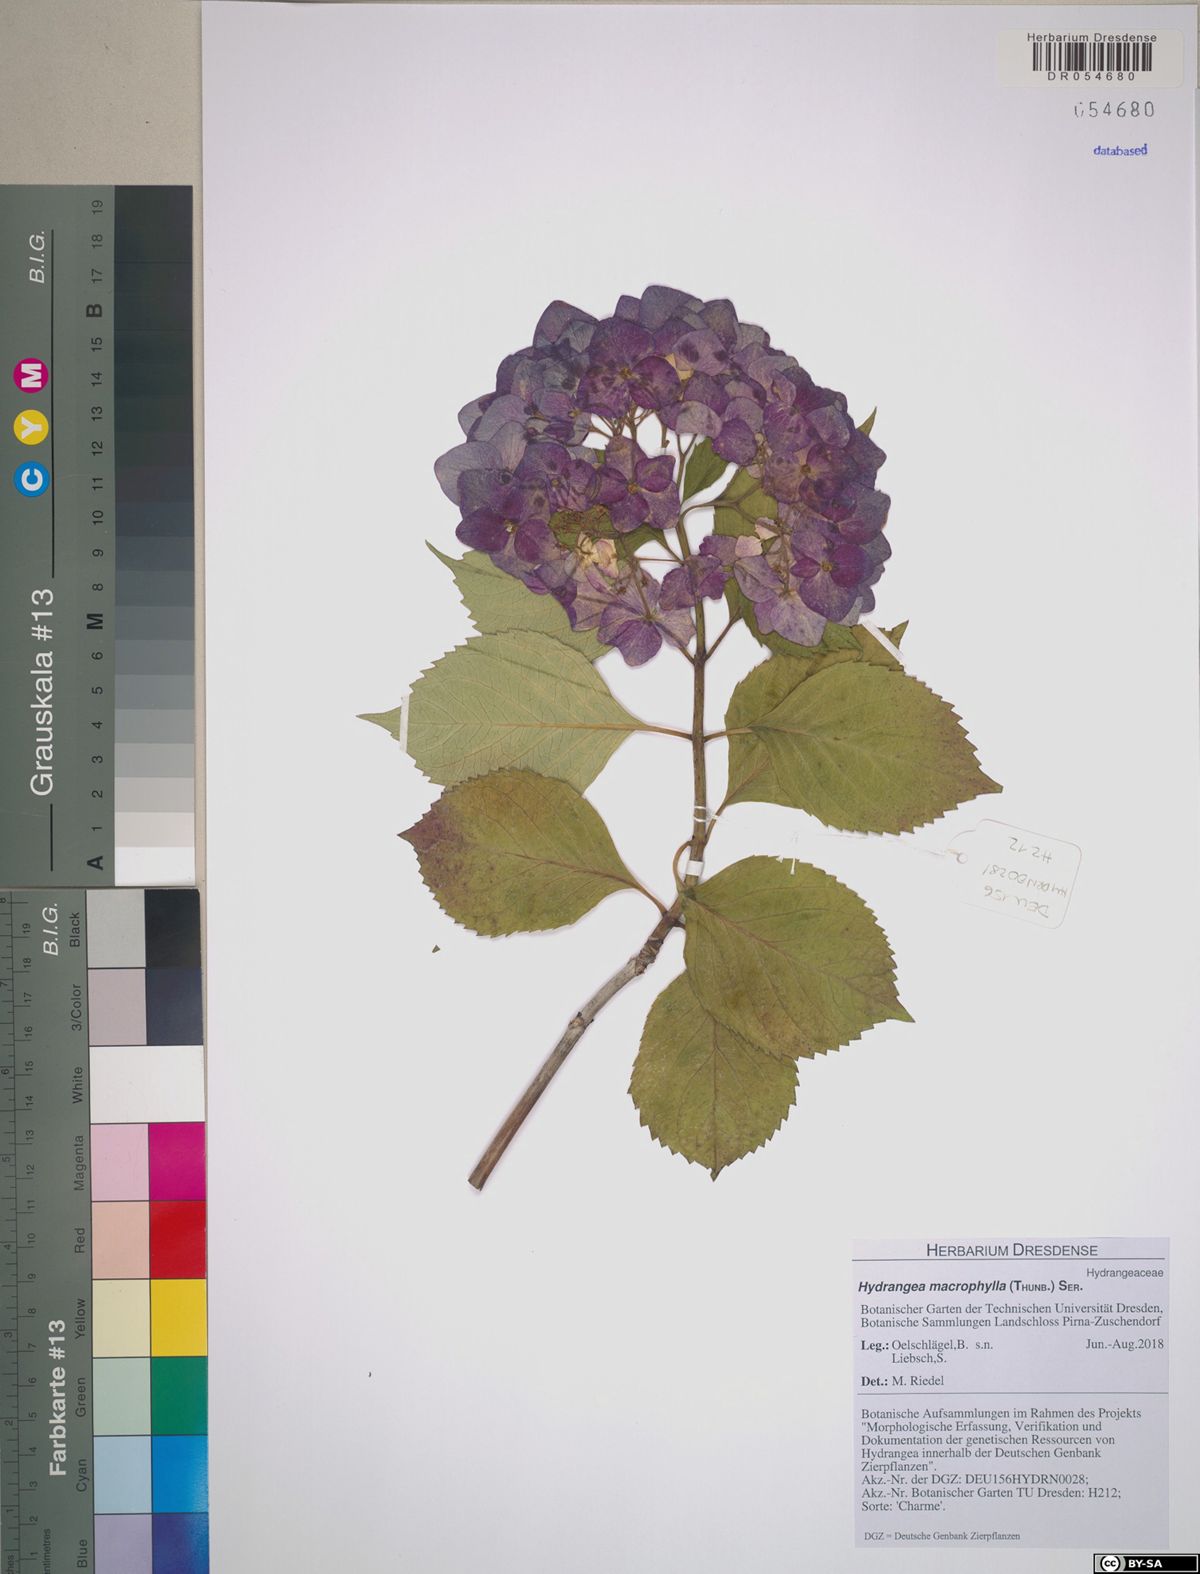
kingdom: Plantae
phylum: Tracheophyta
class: Magnoliopsida
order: Cornales
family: Hydrangeaceae
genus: Hydrangea
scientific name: Hydrangea macrophylla
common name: Hydrangea
